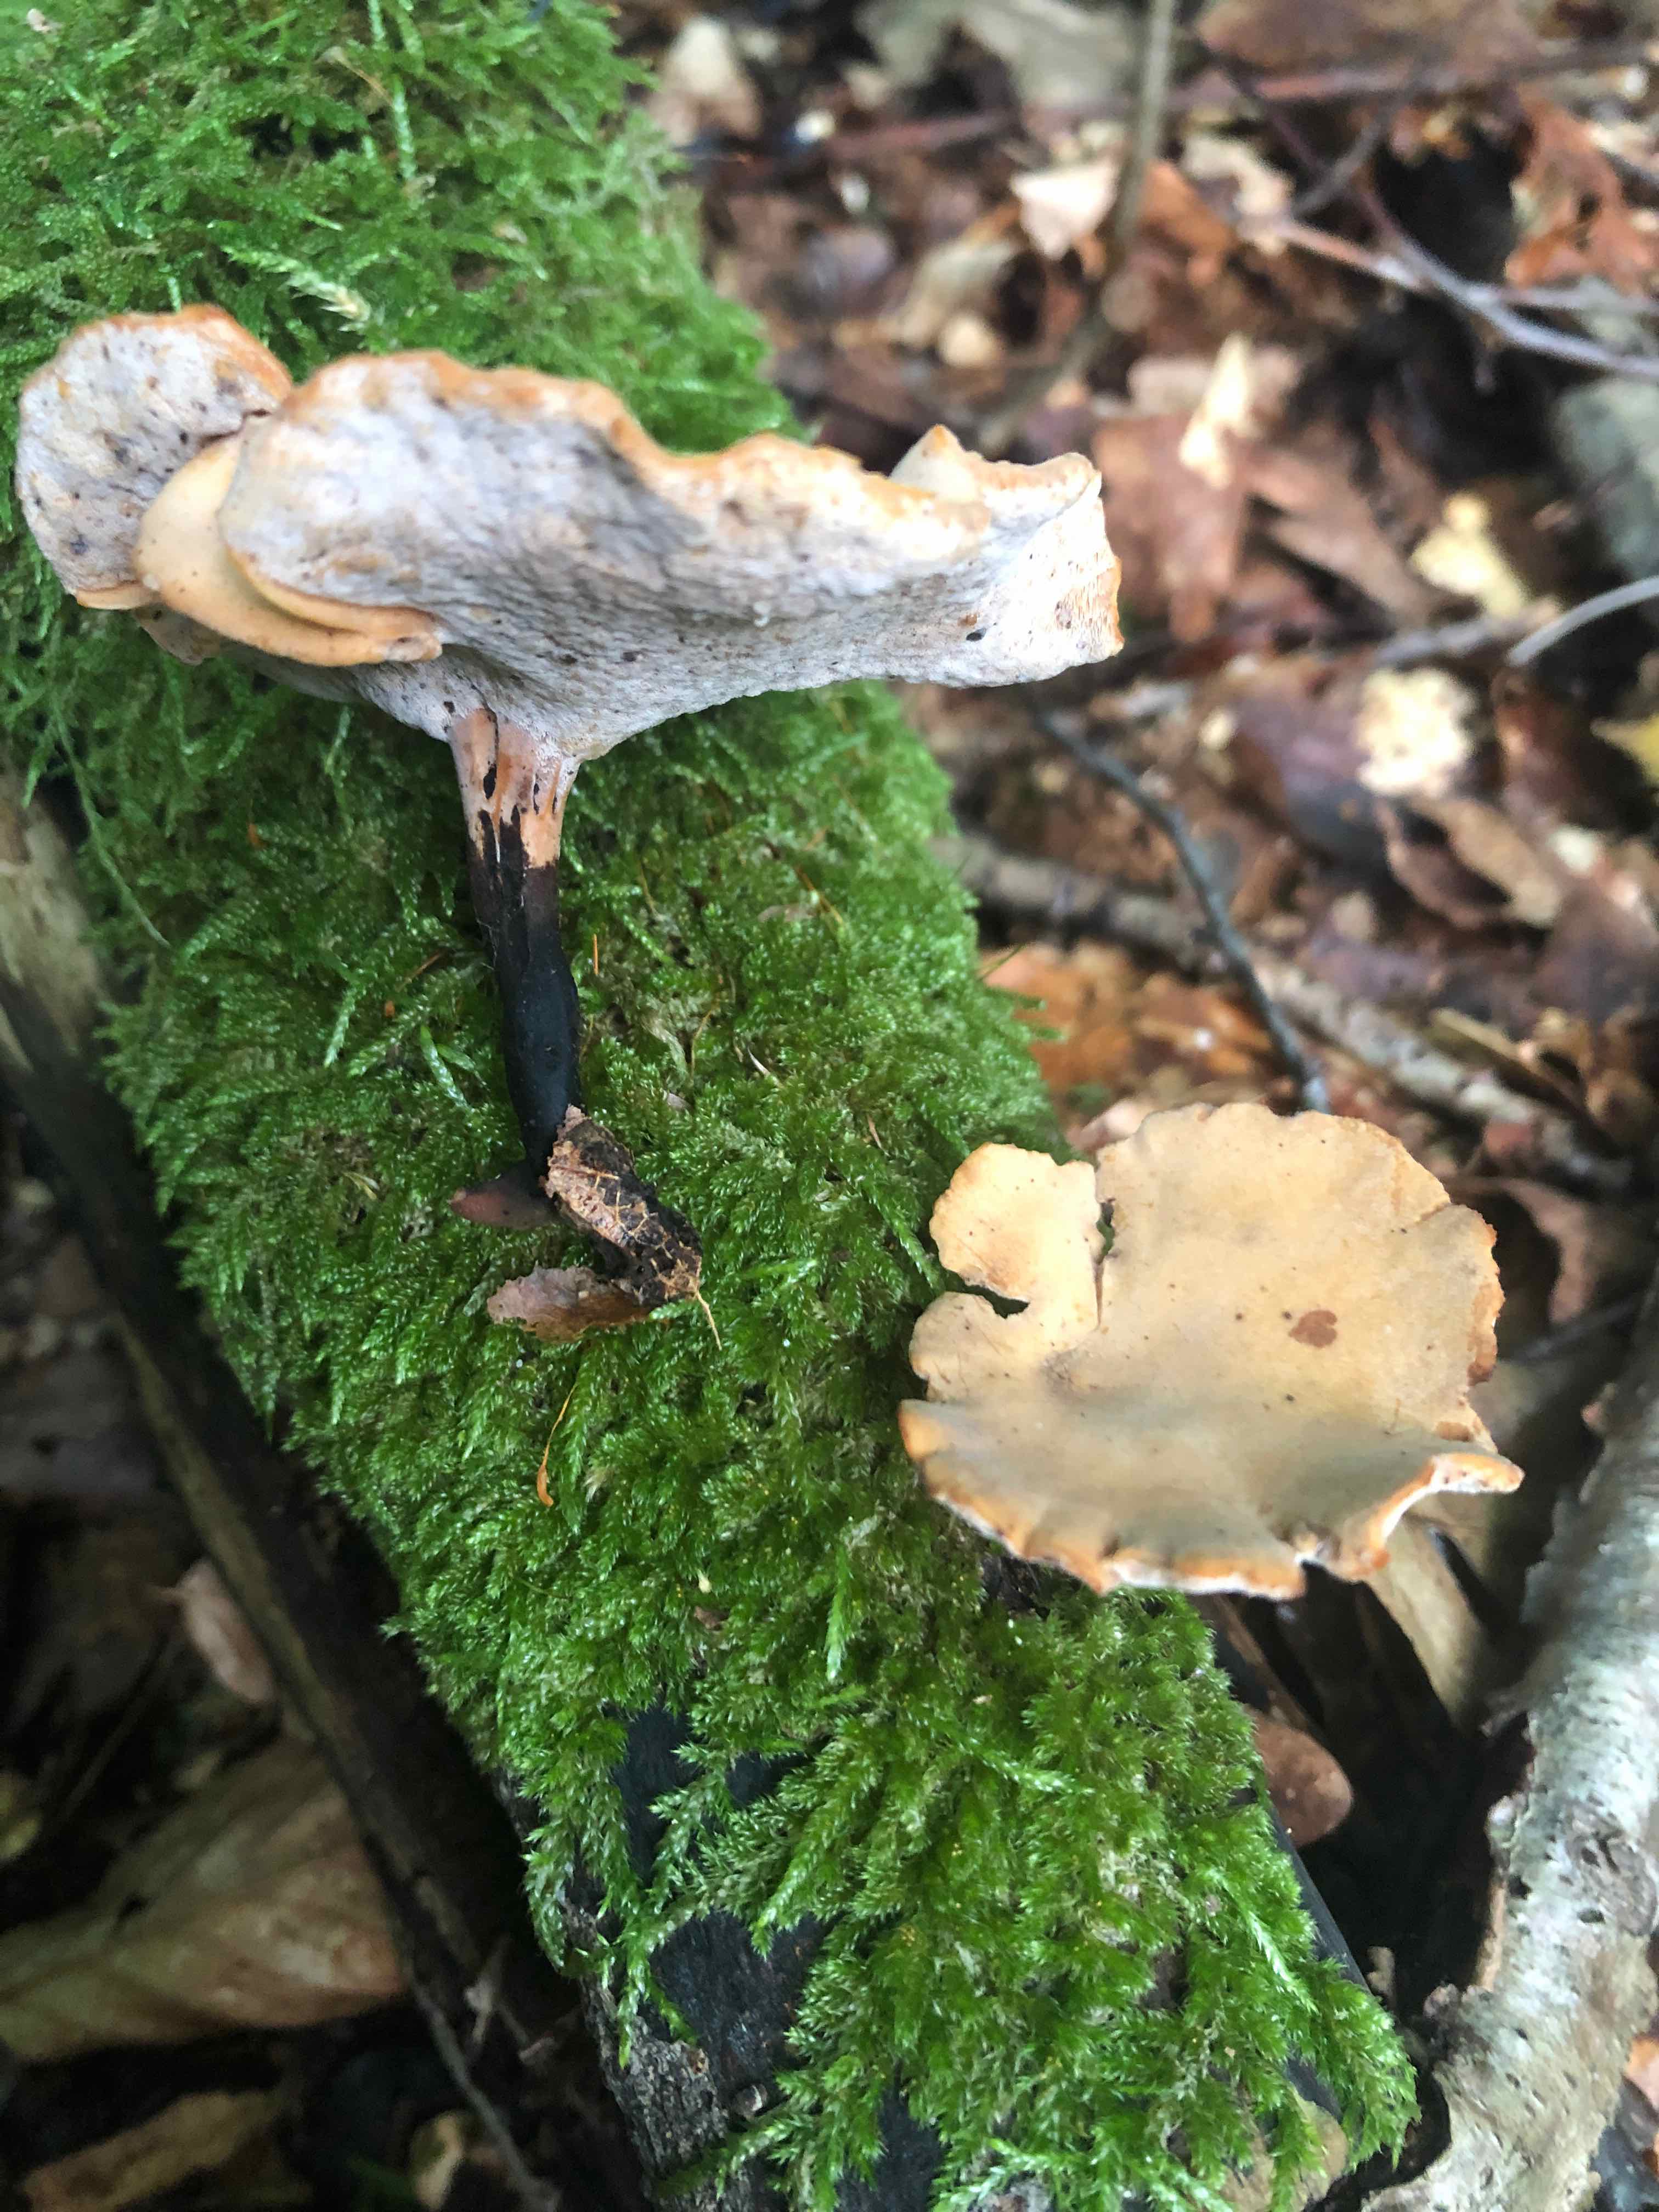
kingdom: Fungi
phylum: Basidiomycota
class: Agaricomycetes
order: Polyporales
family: Polyporaceae
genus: Cerioporus
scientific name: Cerioporus varius
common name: foranderlig stilkporesvamp
